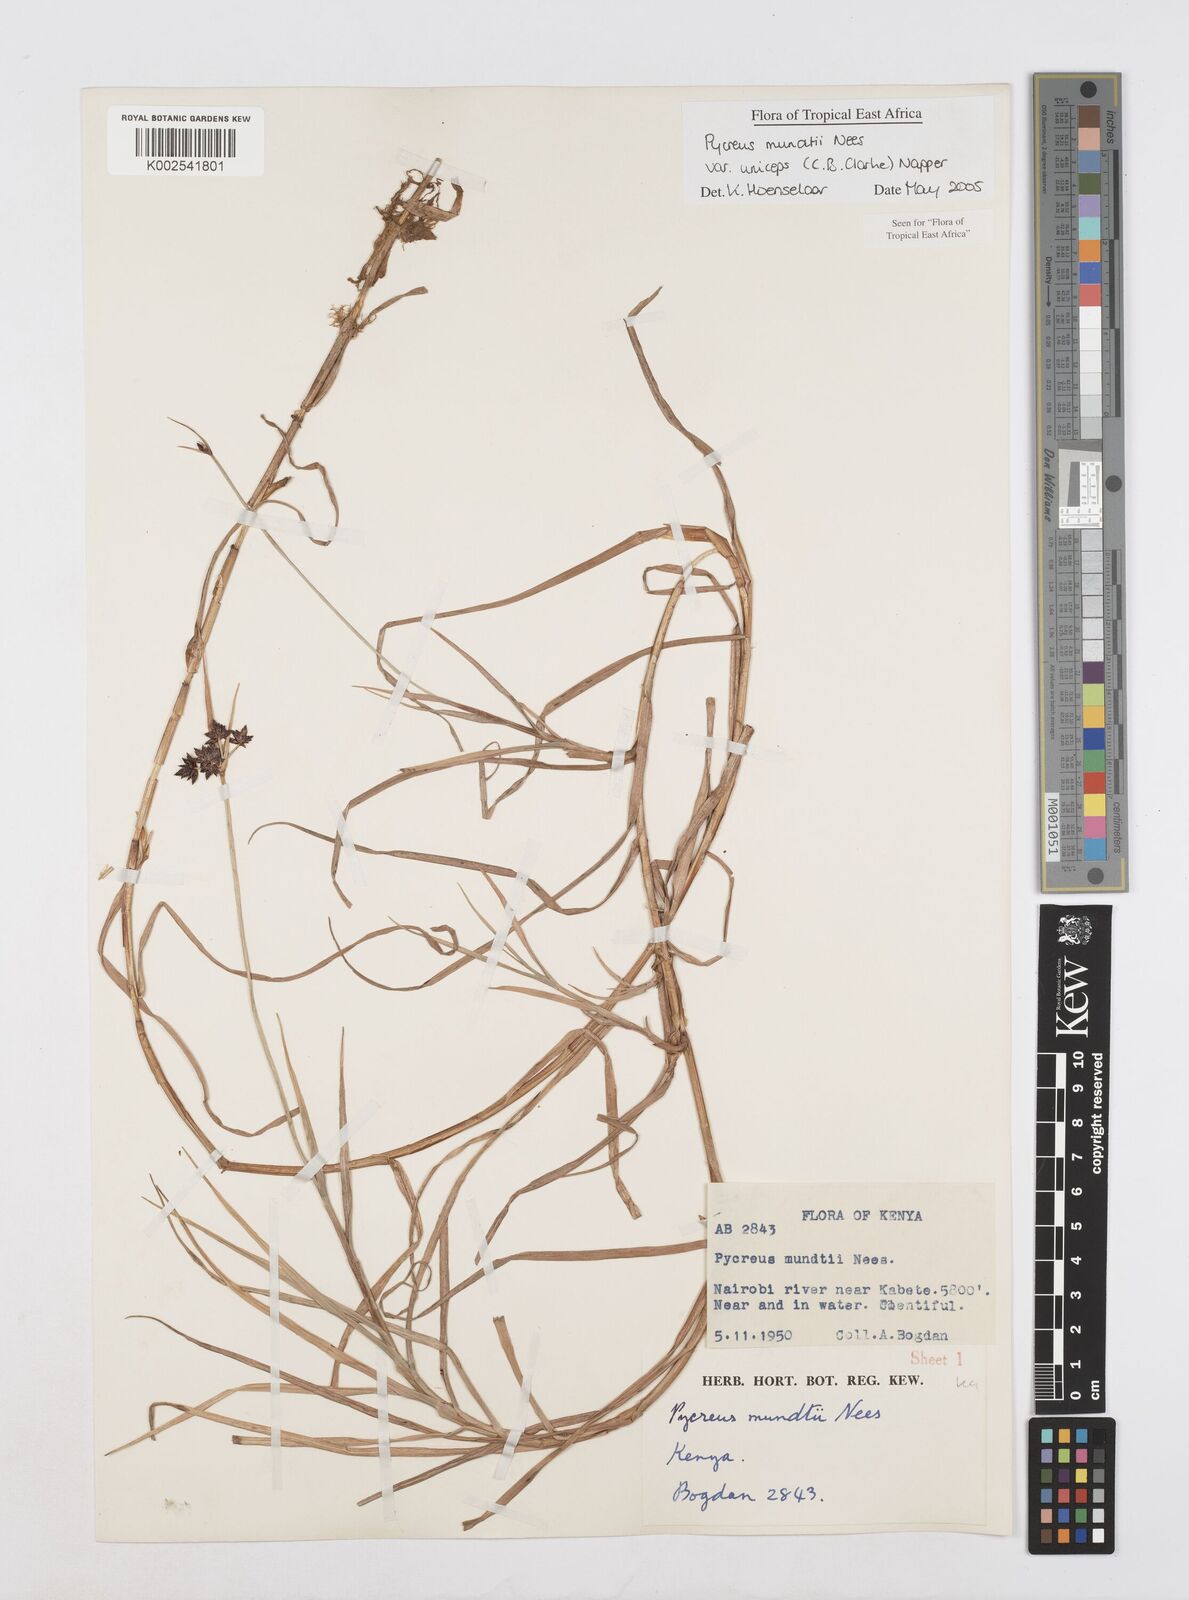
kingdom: Plantae
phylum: Tracheophyta
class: Liliopsida
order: Poales
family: Cyperaceae
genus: Cyperus
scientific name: Cyperus mundii
